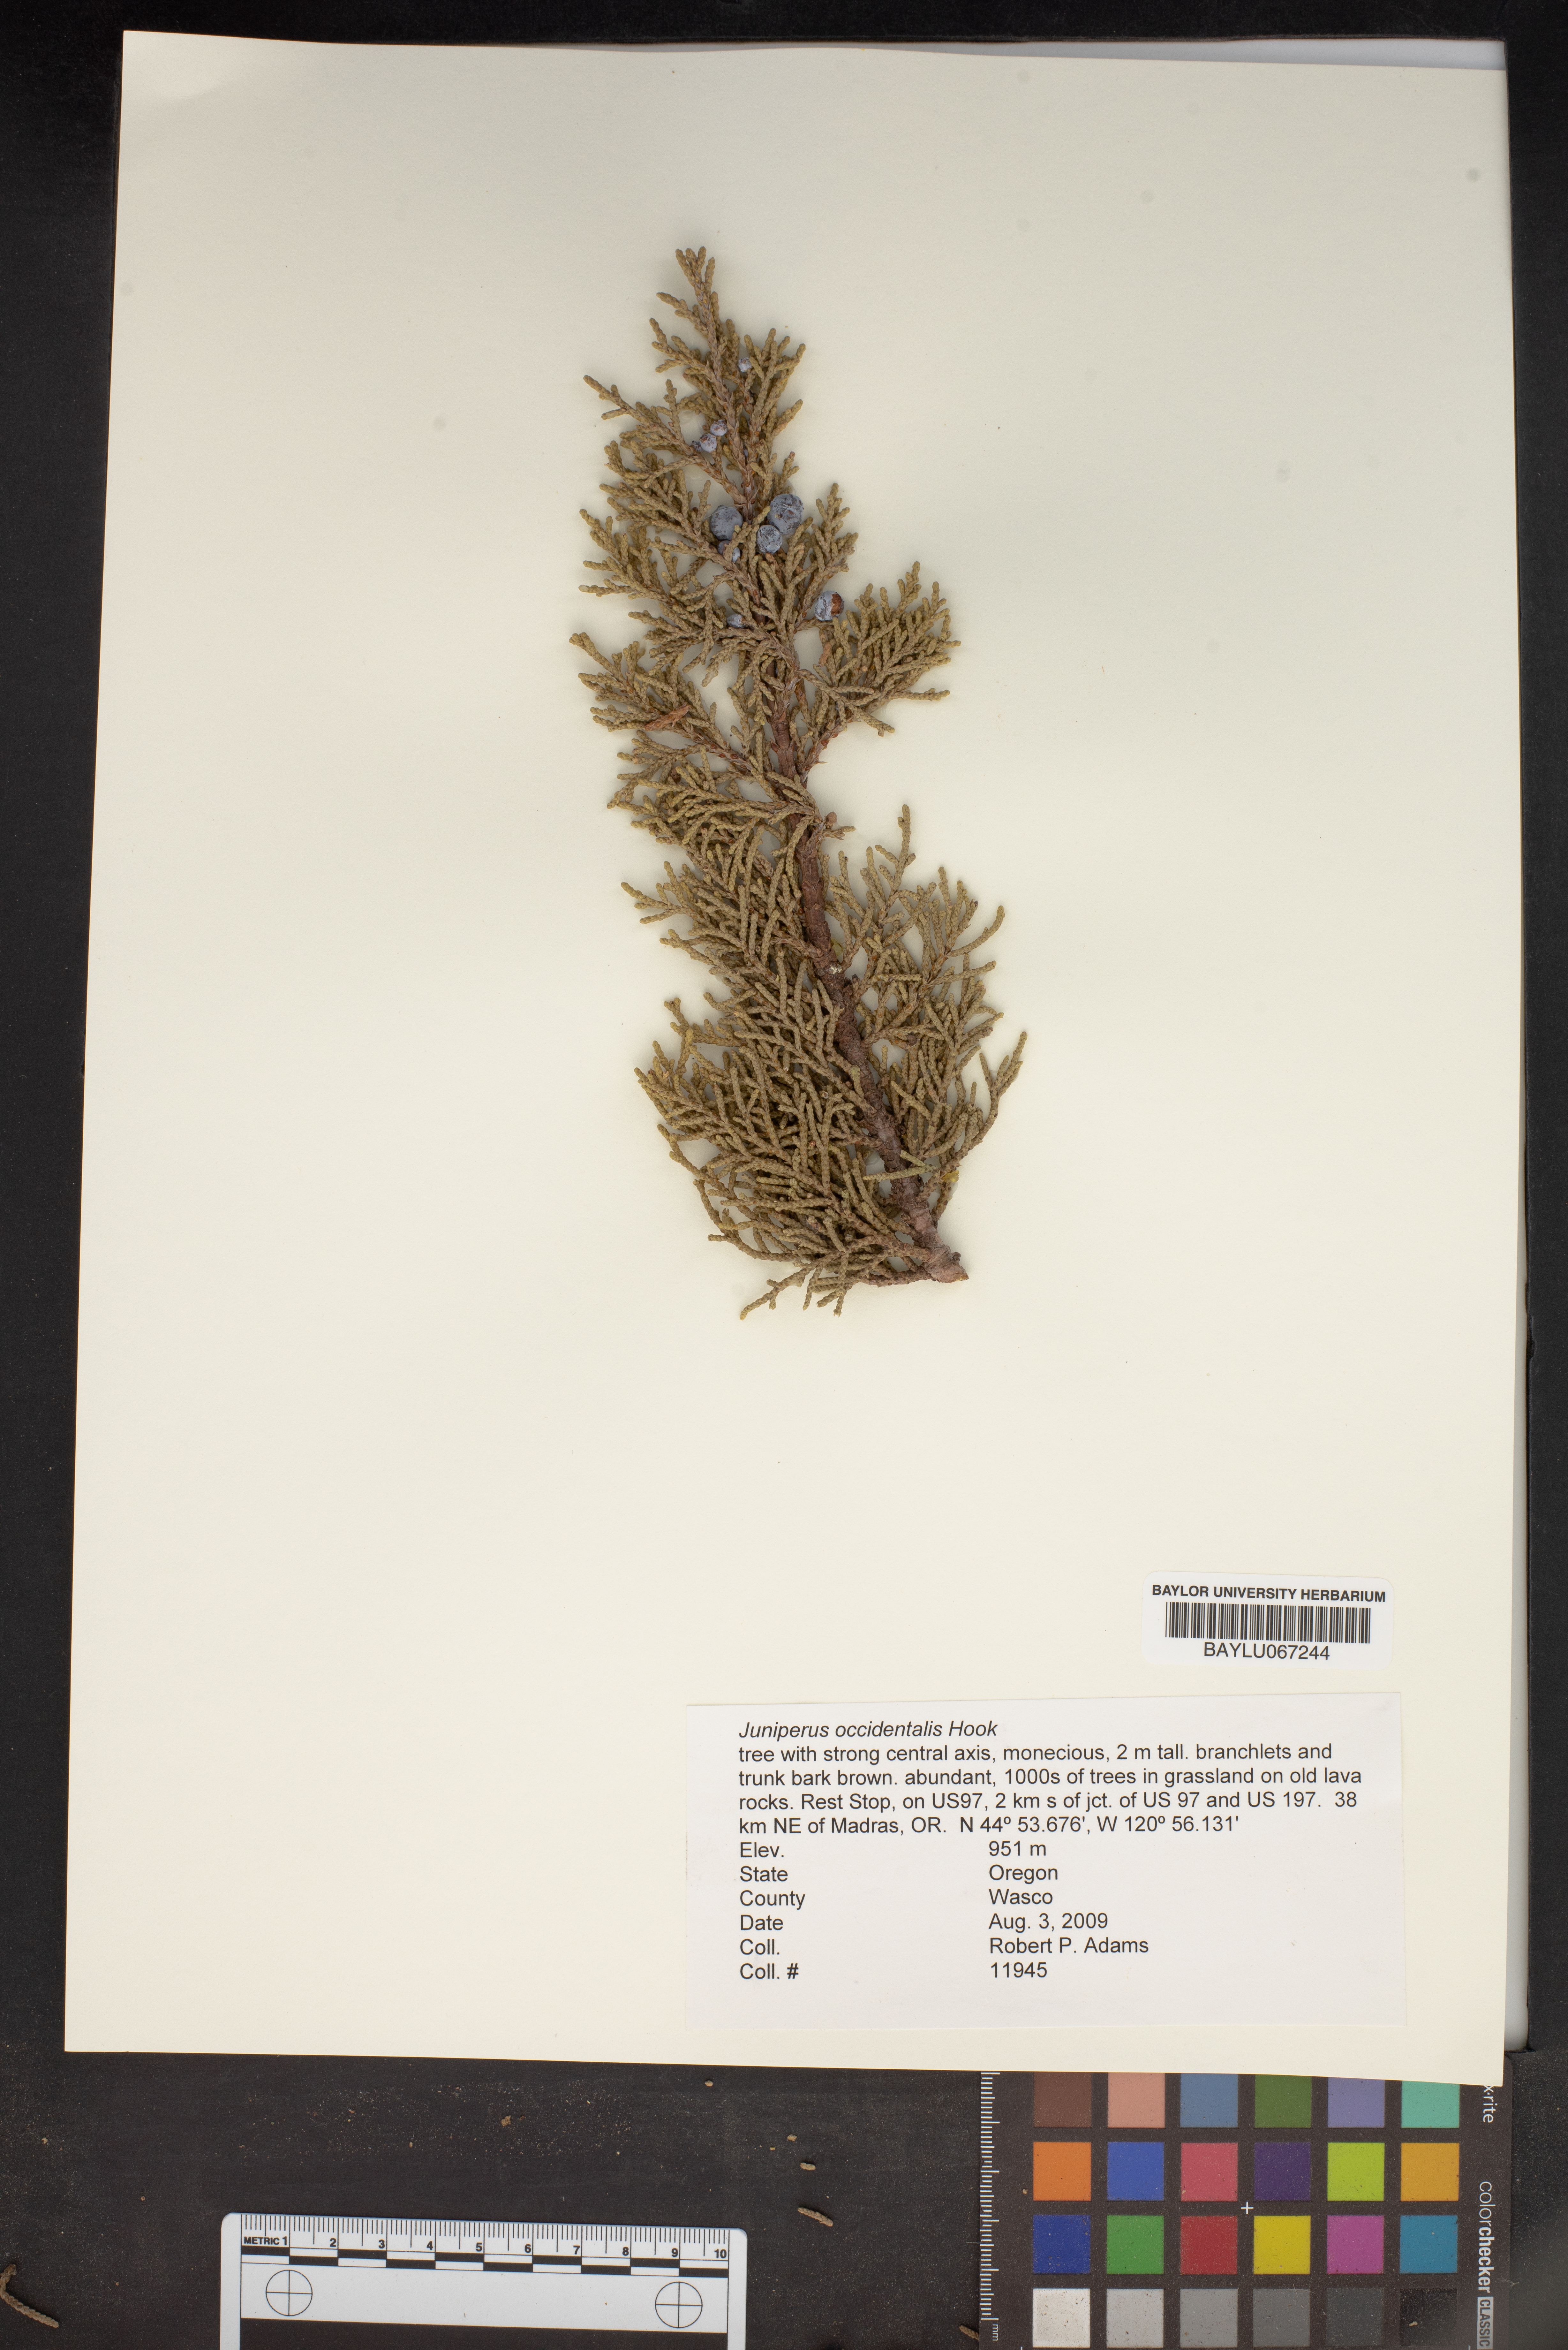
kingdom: Plantae
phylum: Tracheophyta
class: Pinopsida
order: Pinales
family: Cupressaceae
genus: Juniperus
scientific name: Juniperus occidentalis
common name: Western juniper
